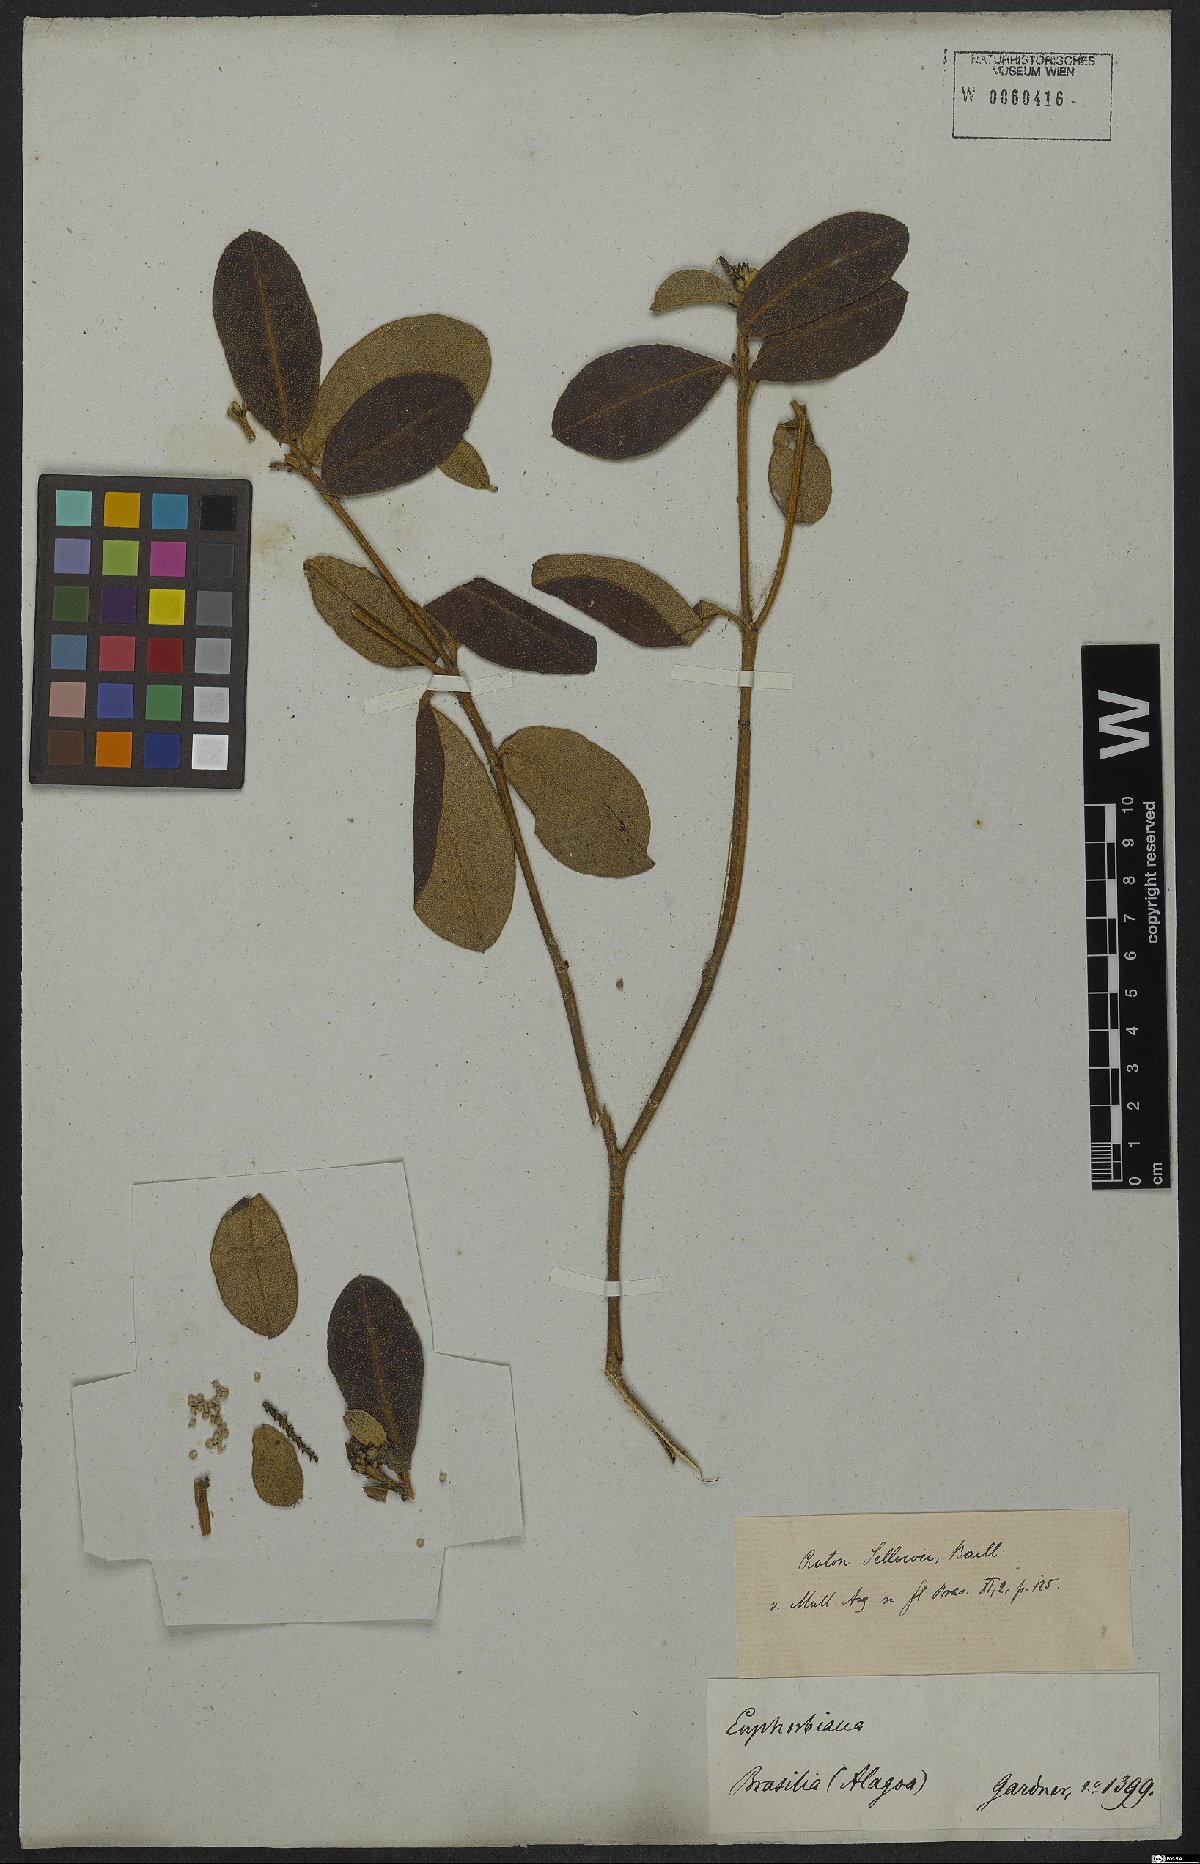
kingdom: Plantae
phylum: Tracheophyta
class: Magnoliopsida
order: Malpighiales
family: Euphorbiaceae
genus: Croton
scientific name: Croton sellowii
